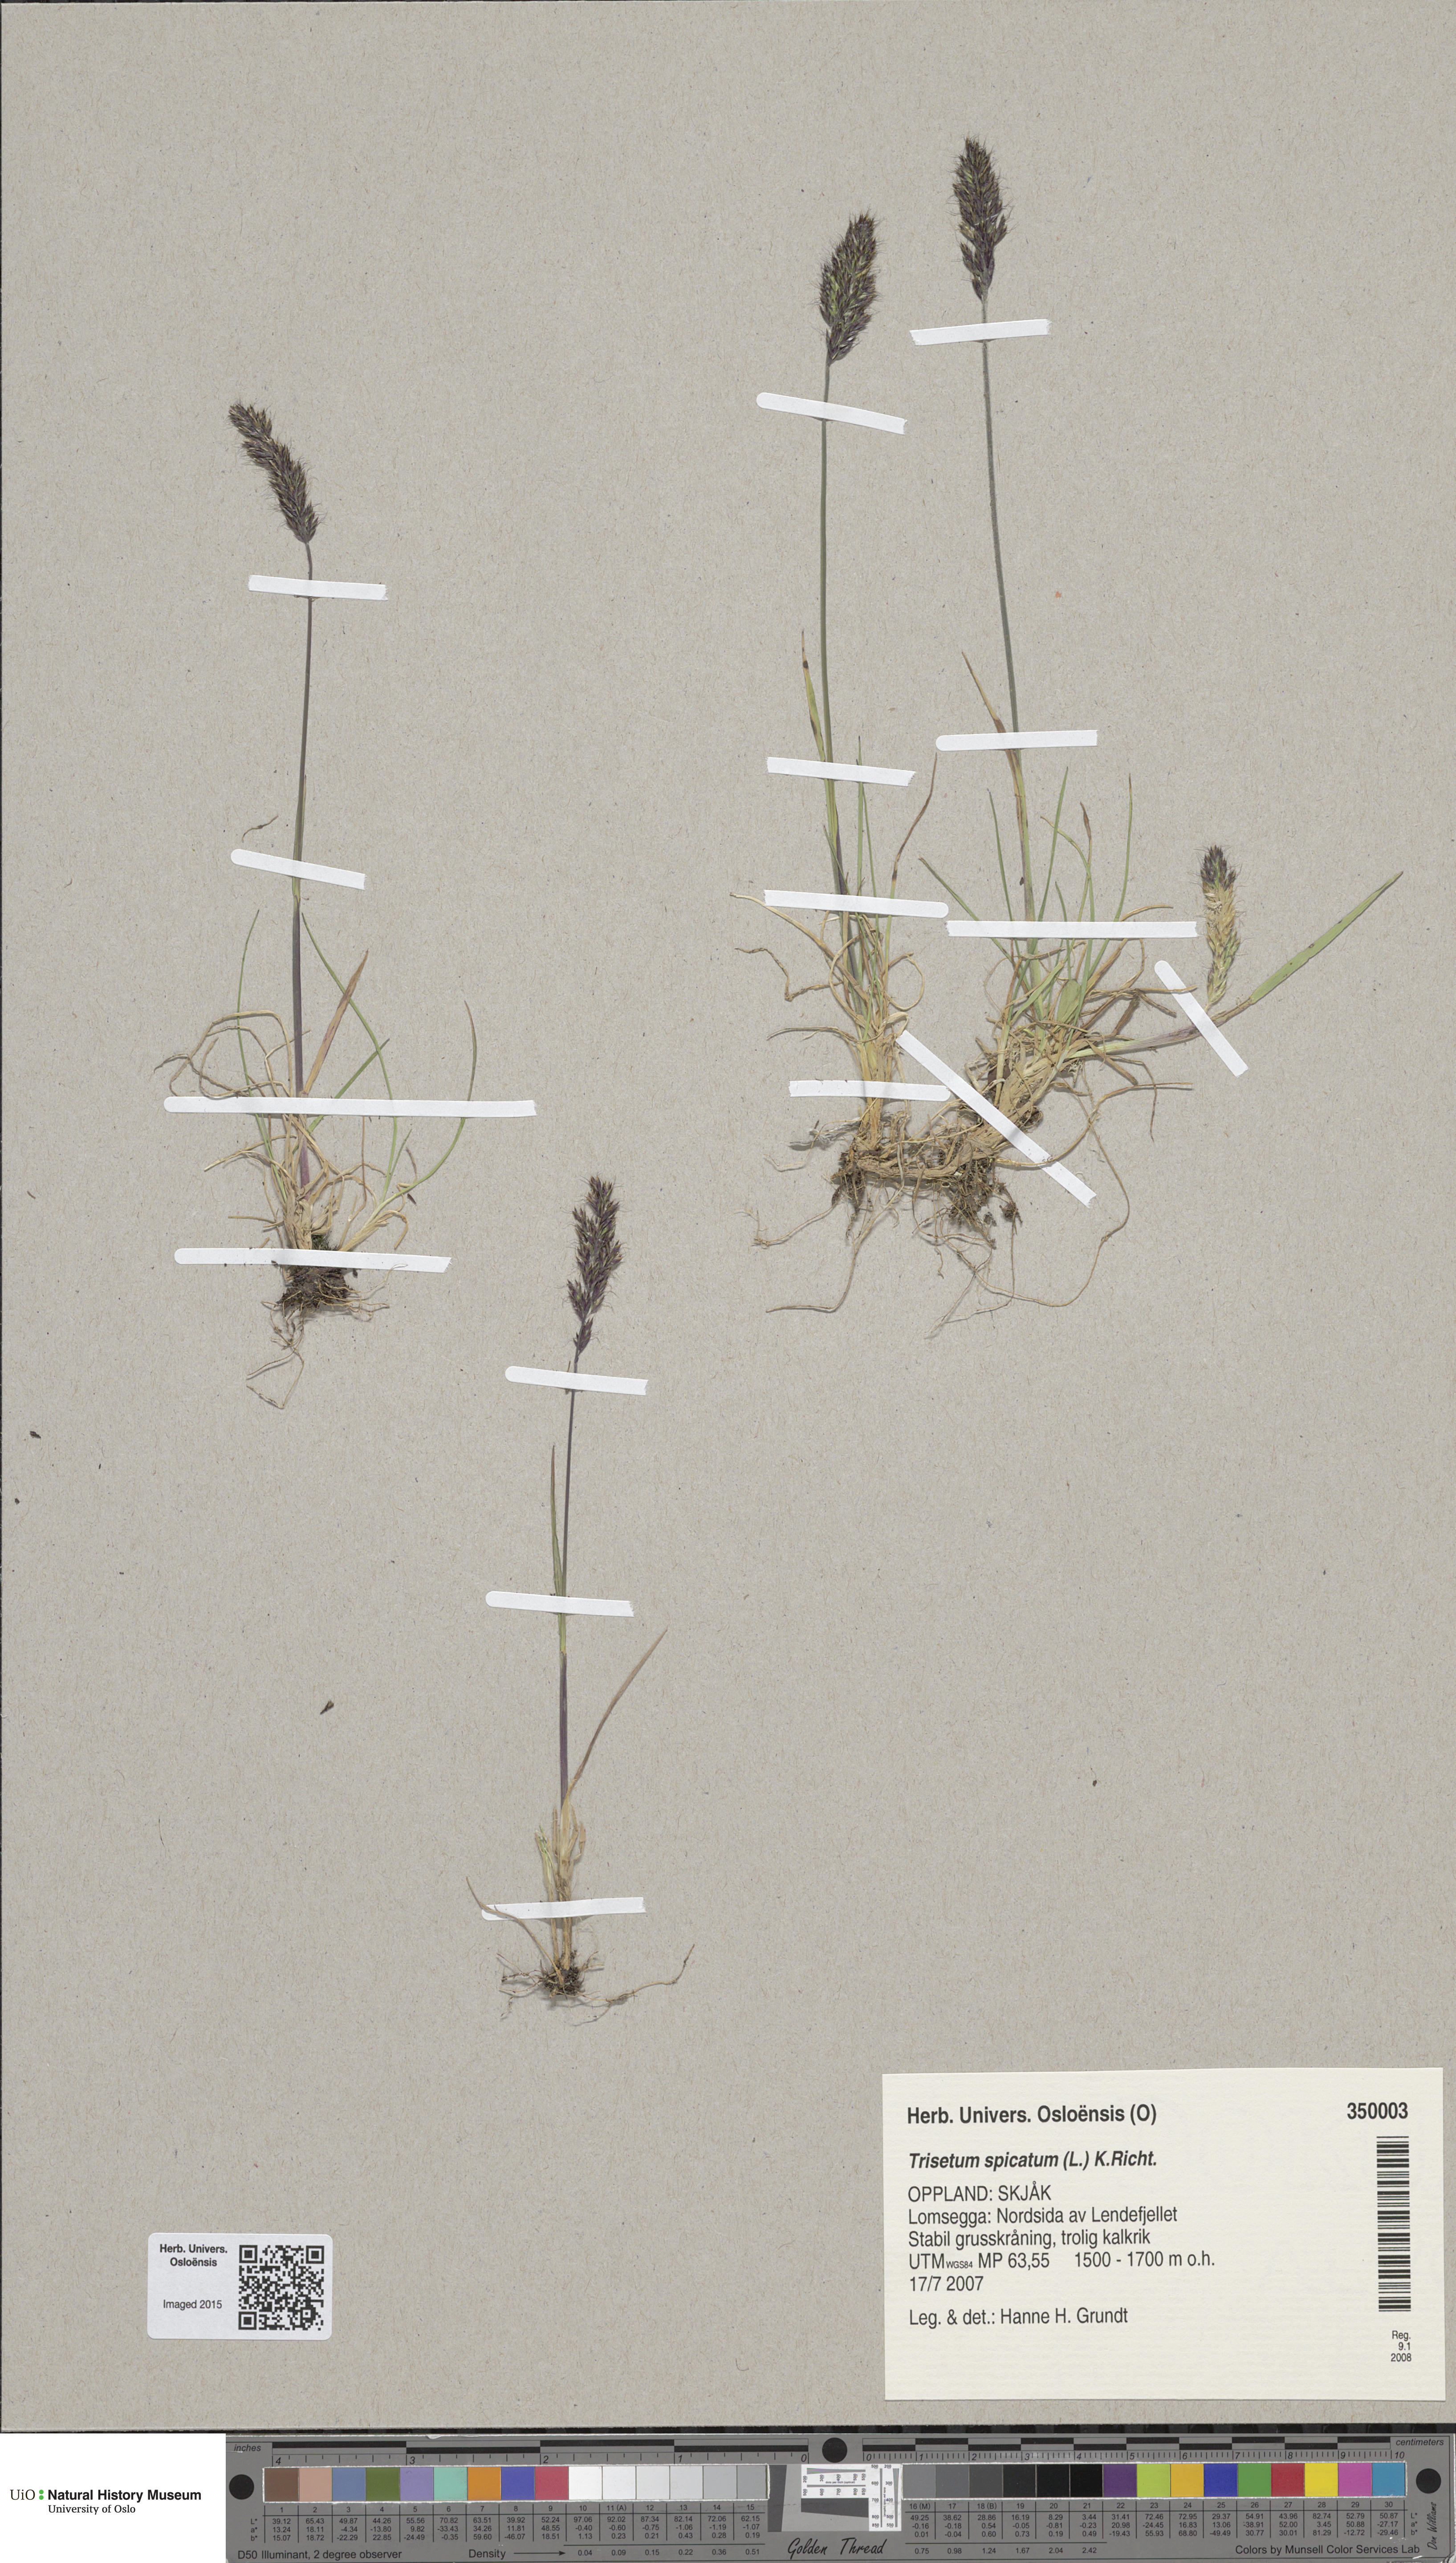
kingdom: Plantae
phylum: Tracheophyta
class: Liliopsida
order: Poales
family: Poaceae
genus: Koeleria
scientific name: Koeleria spicata
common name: Mountain trisetum
